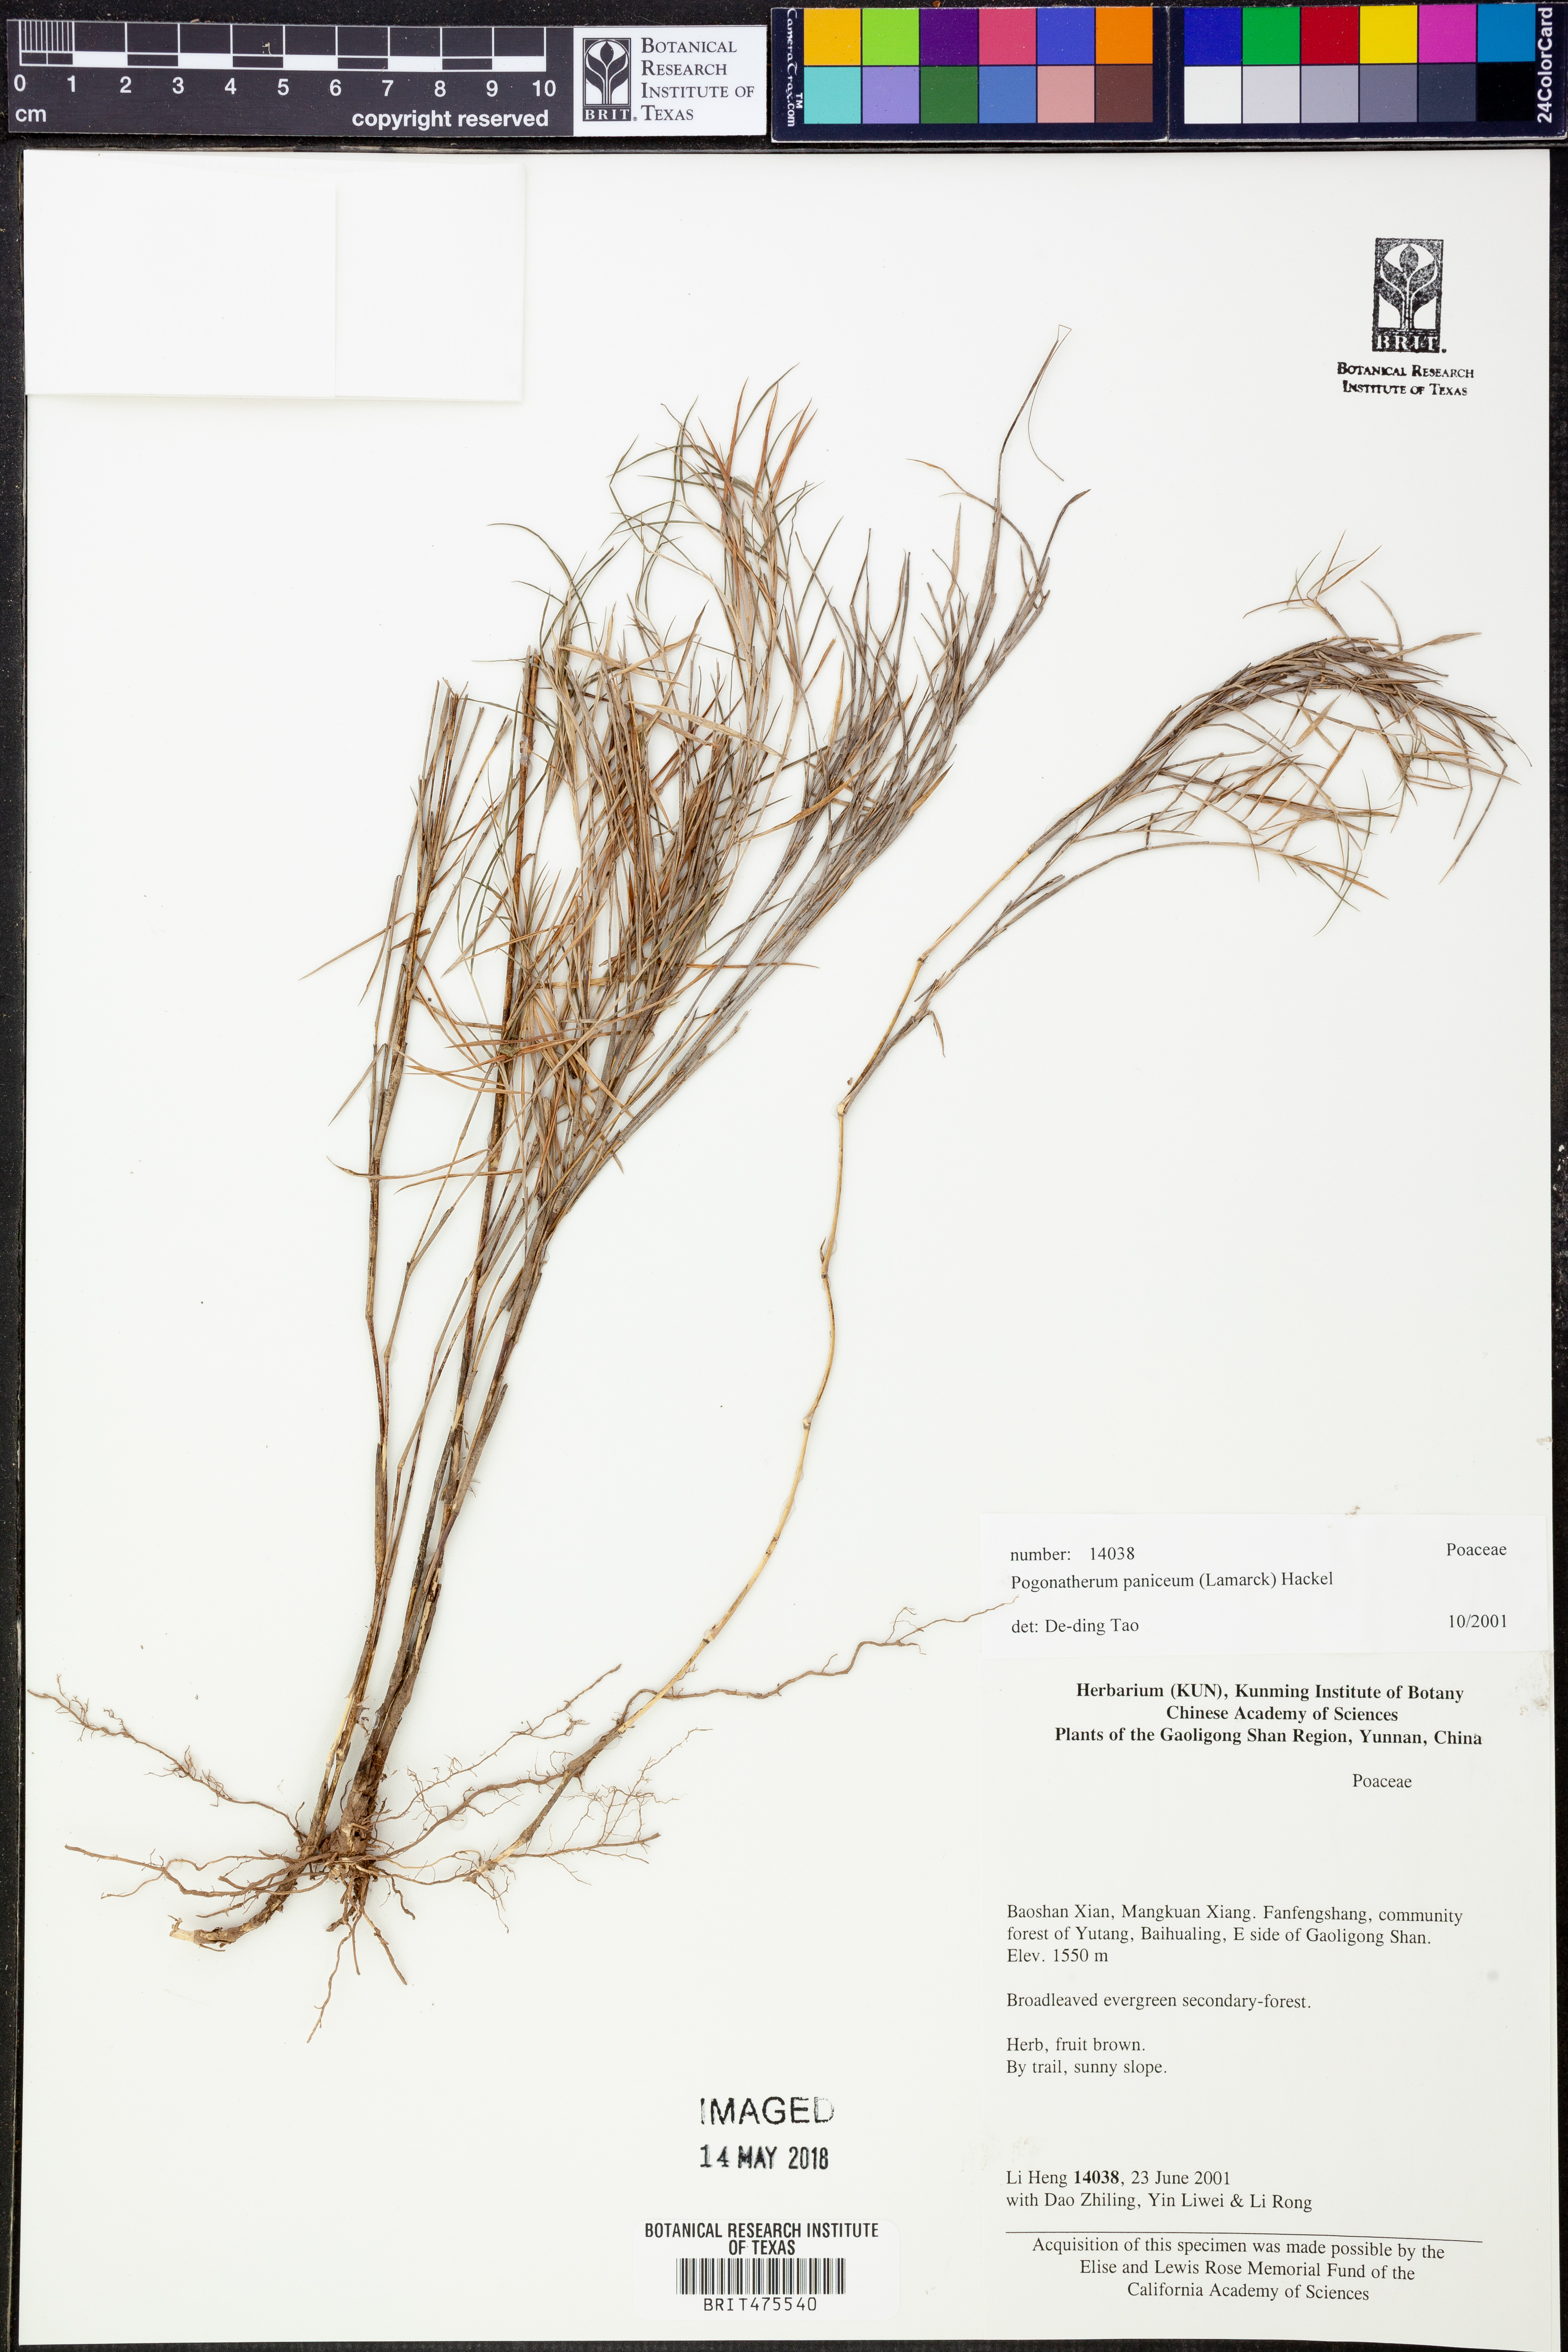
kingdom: Plantae
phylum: Tracheophyta
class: Liliopsida
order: Poales
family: Poaceae
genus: Pogonatherum
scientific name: Pogonatherum paniceum
